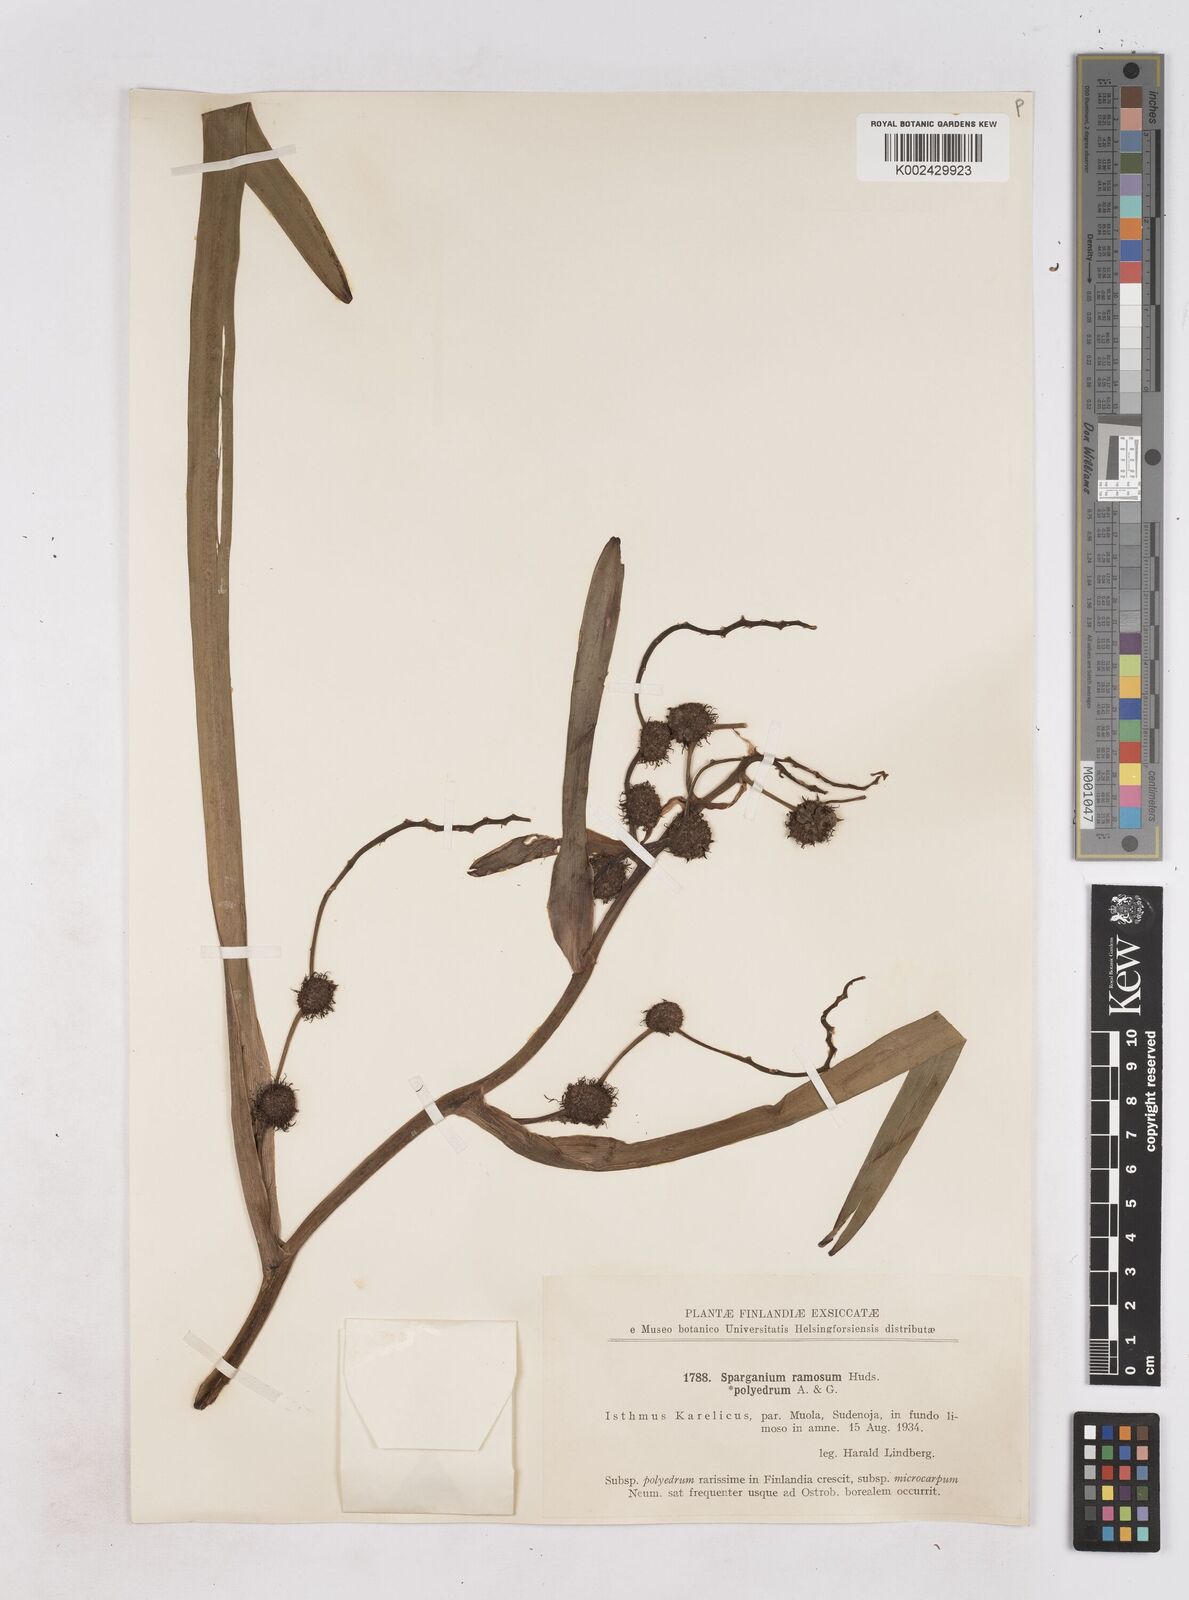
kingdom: Plantae
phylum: Tracheophyta
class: Liliopsida
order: Poales
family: Typhaceae
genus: Sparganium
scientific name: Sparganium erectum
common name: Branched bur-reed
